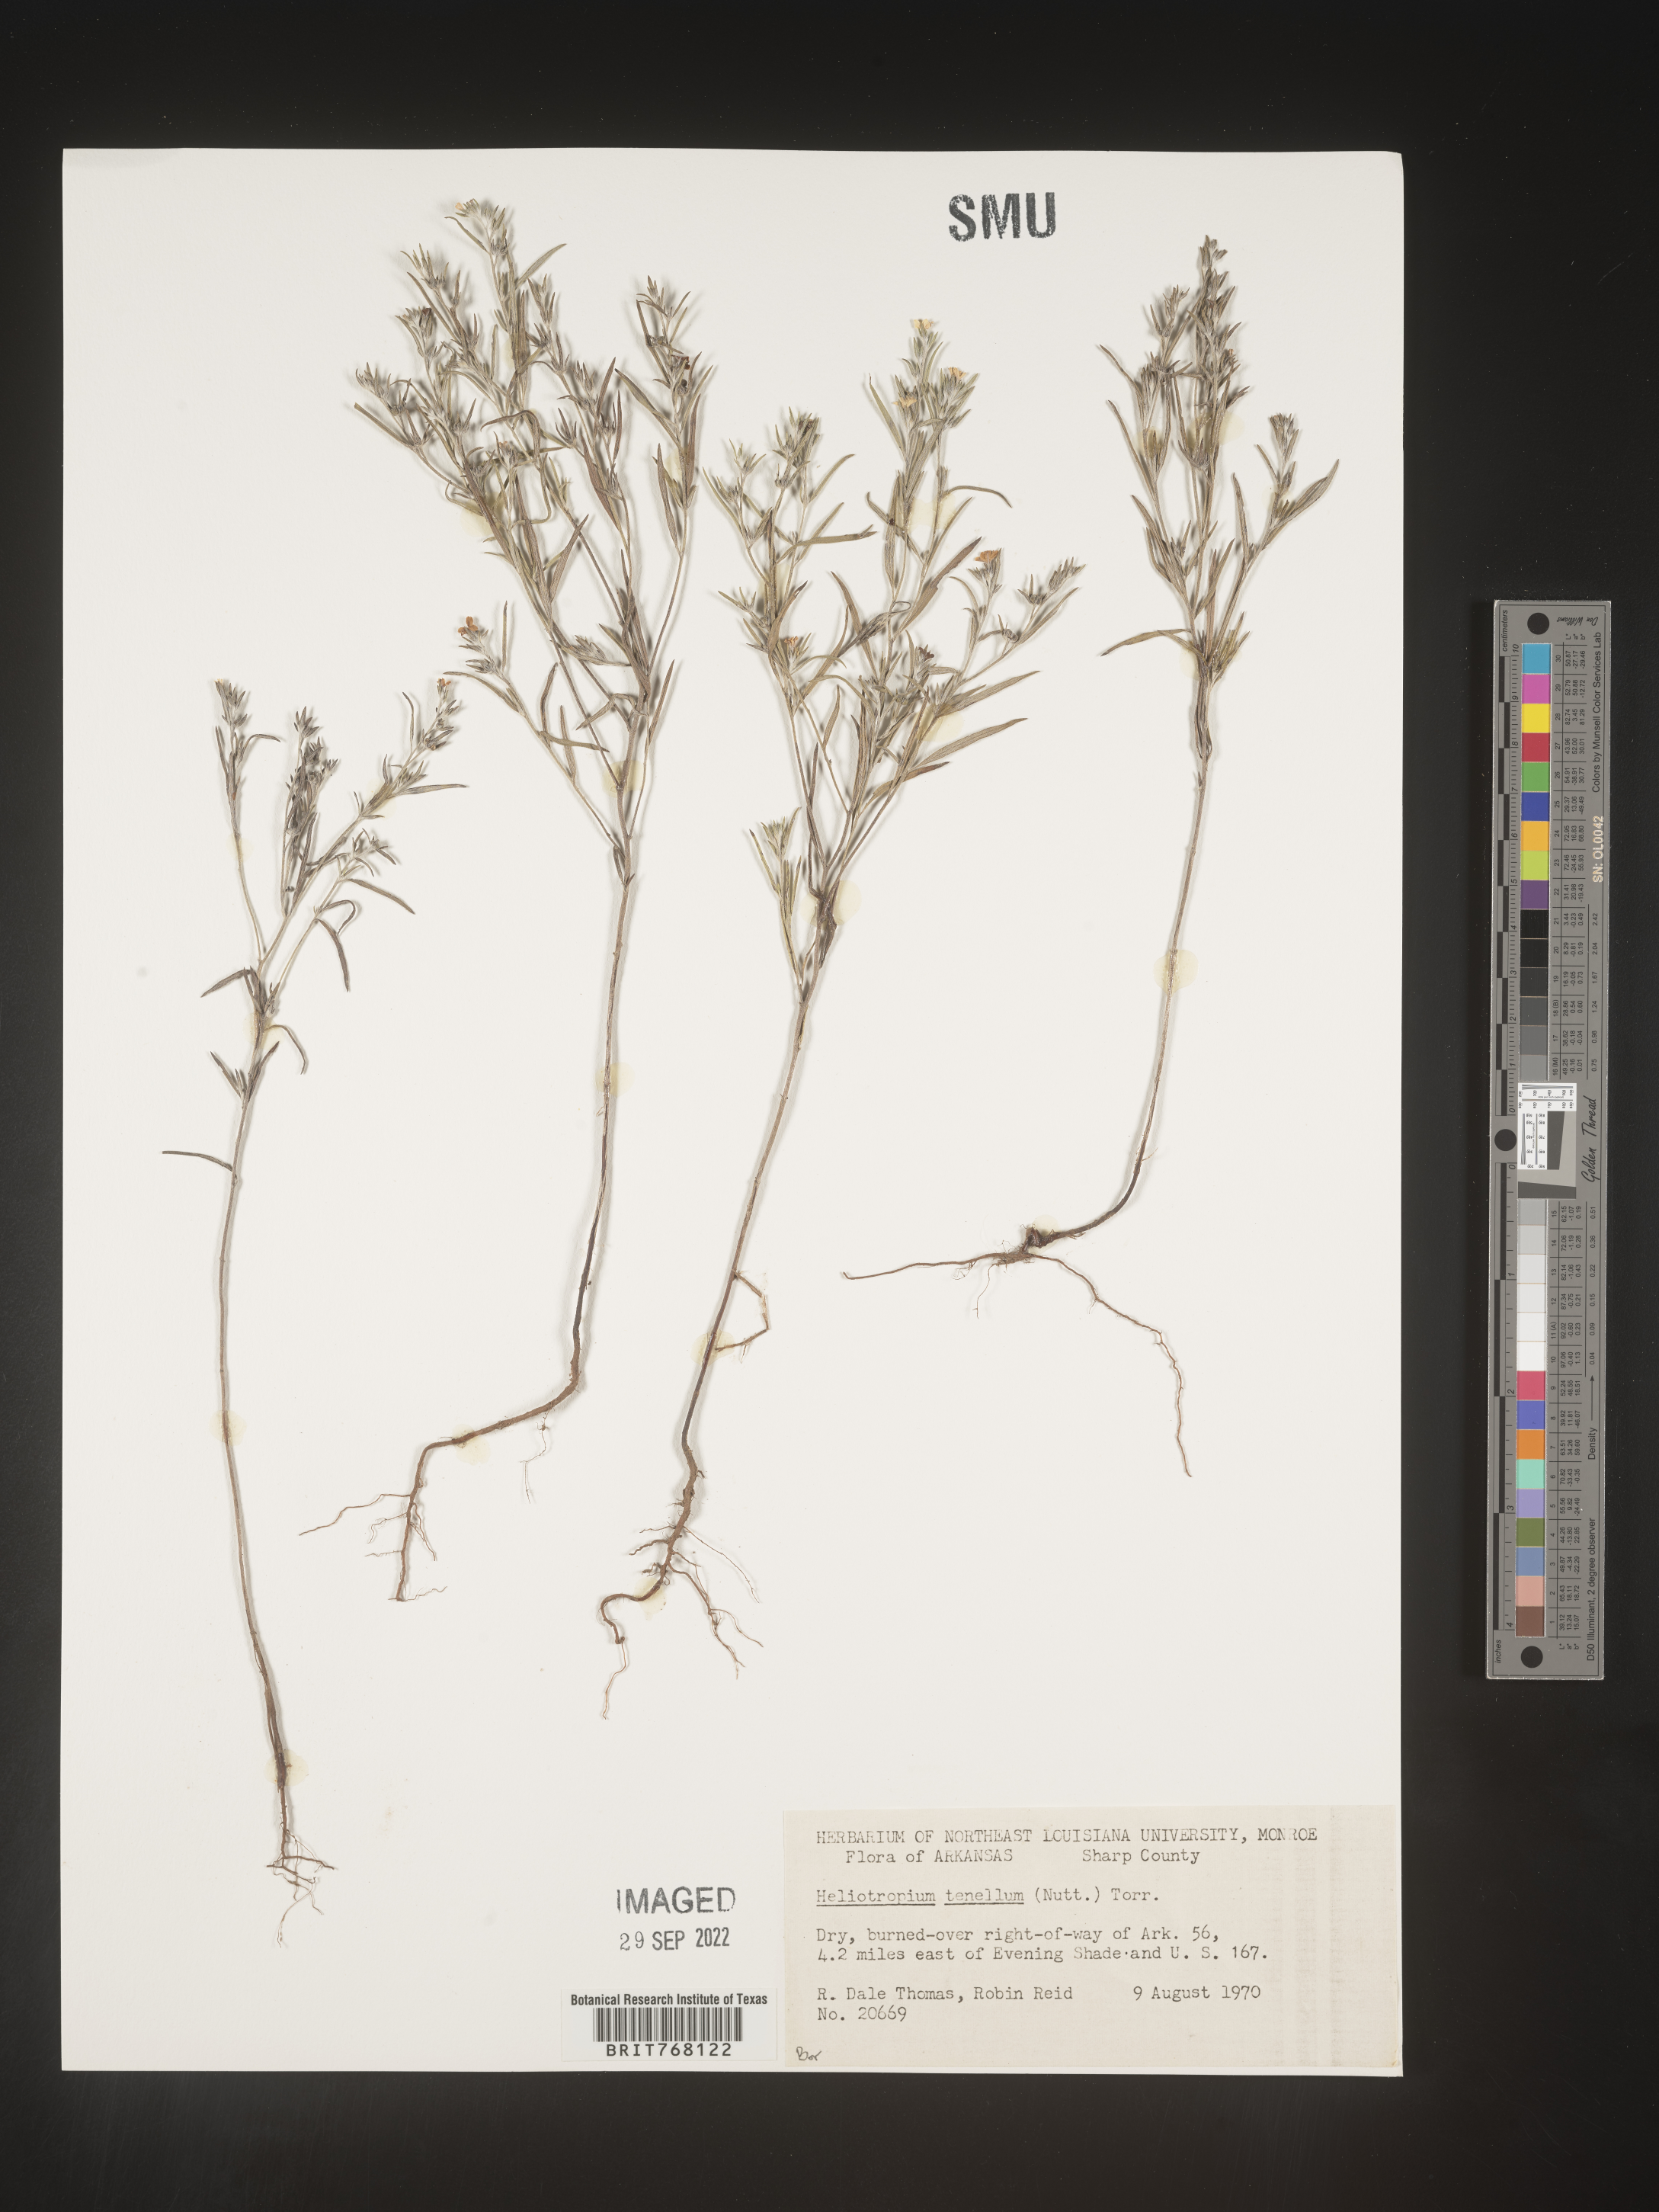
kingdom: Plantae
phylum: Tracheophyta
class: Magnoliopsida
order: Boraginales
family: Heliotropiaceae
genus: Euploca
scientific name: Euploca tenella
